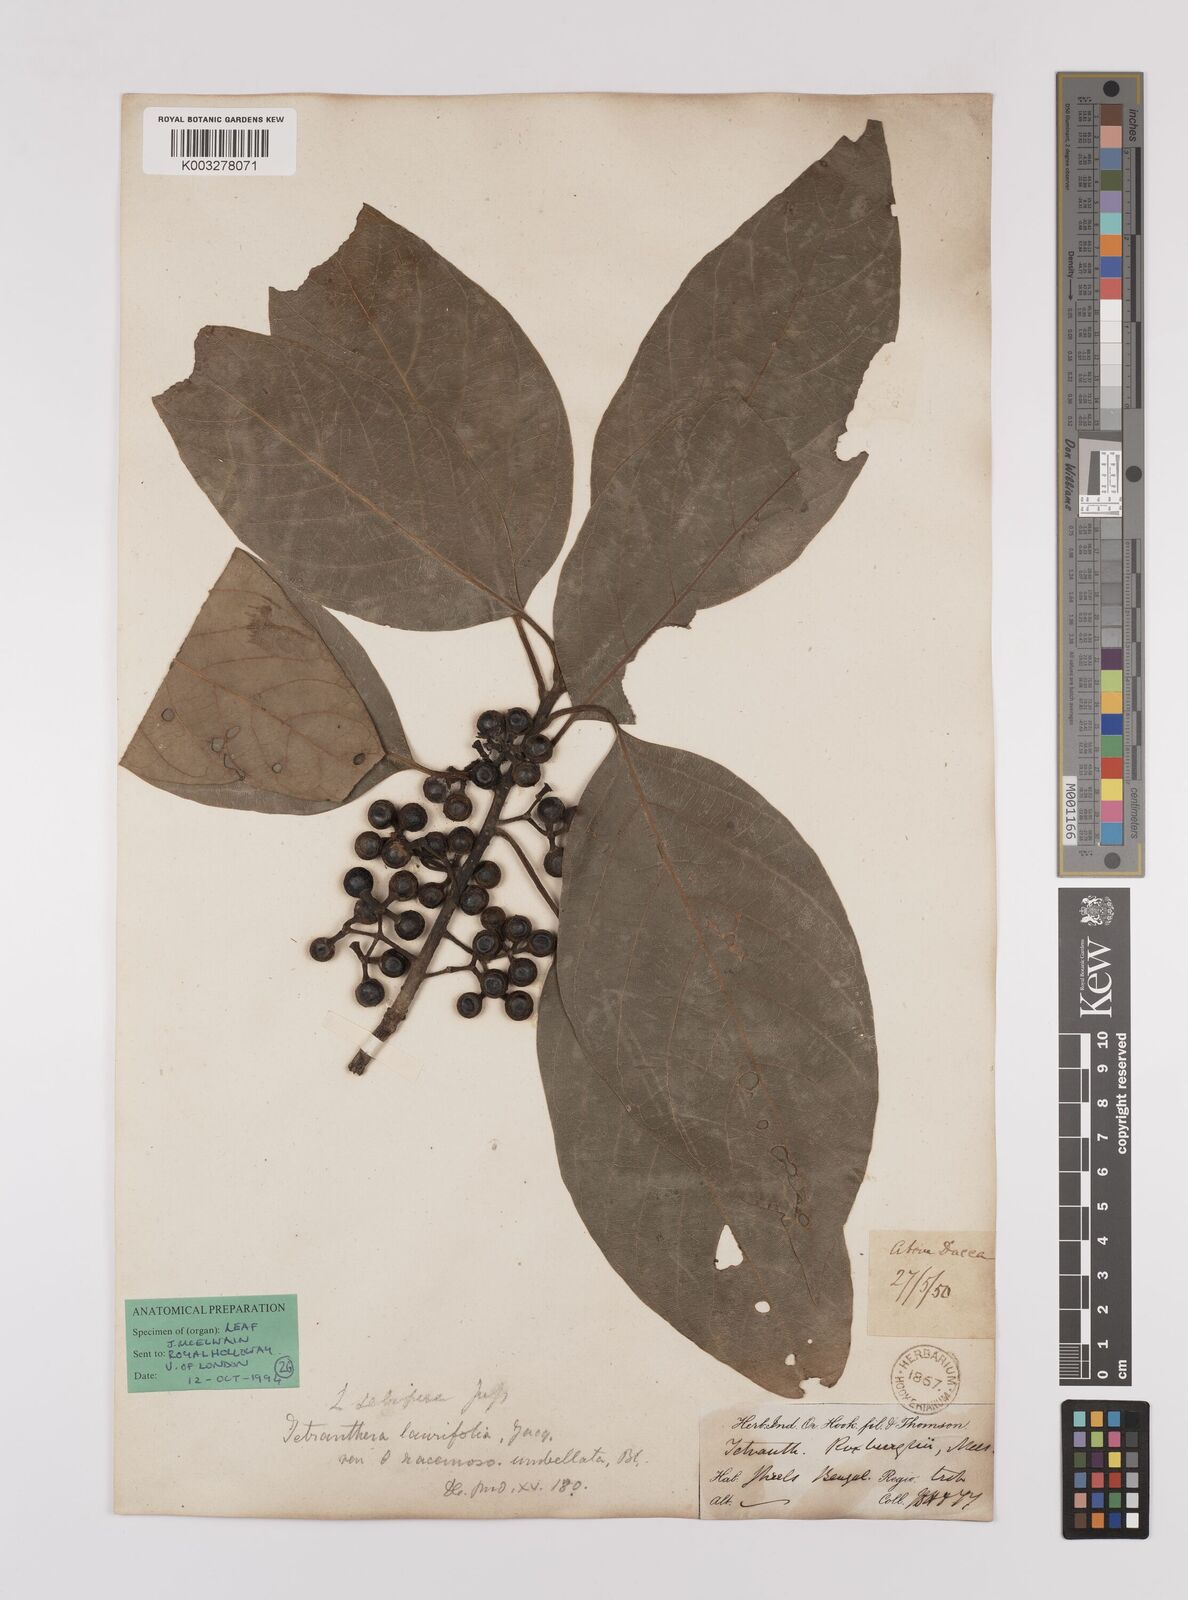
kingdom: Plantae
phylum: Tracheophyta
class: Magnoliopsida
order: Laurales
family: Lauraceae
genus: Litsea
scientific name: Litsea glutinosa
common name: Indian-laurel
